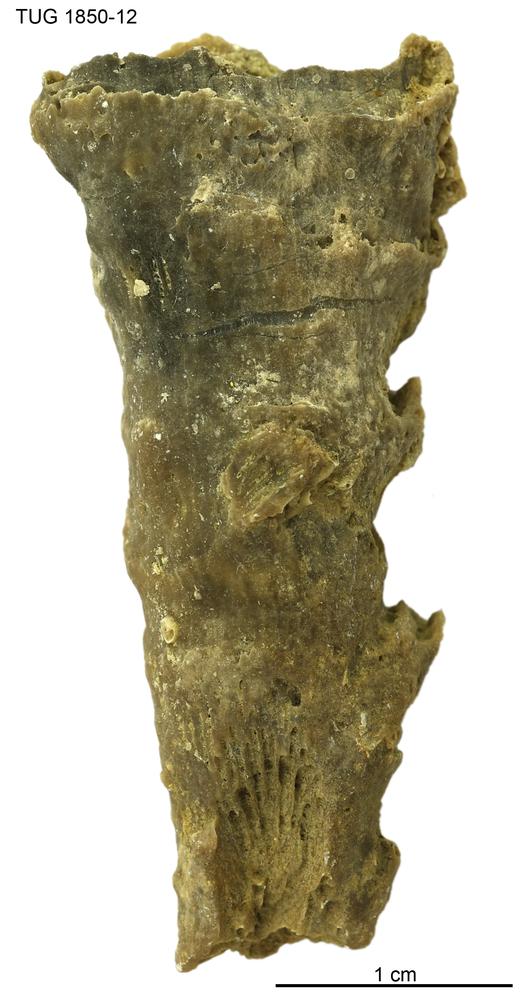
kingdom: Animalia
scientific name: Animalia
